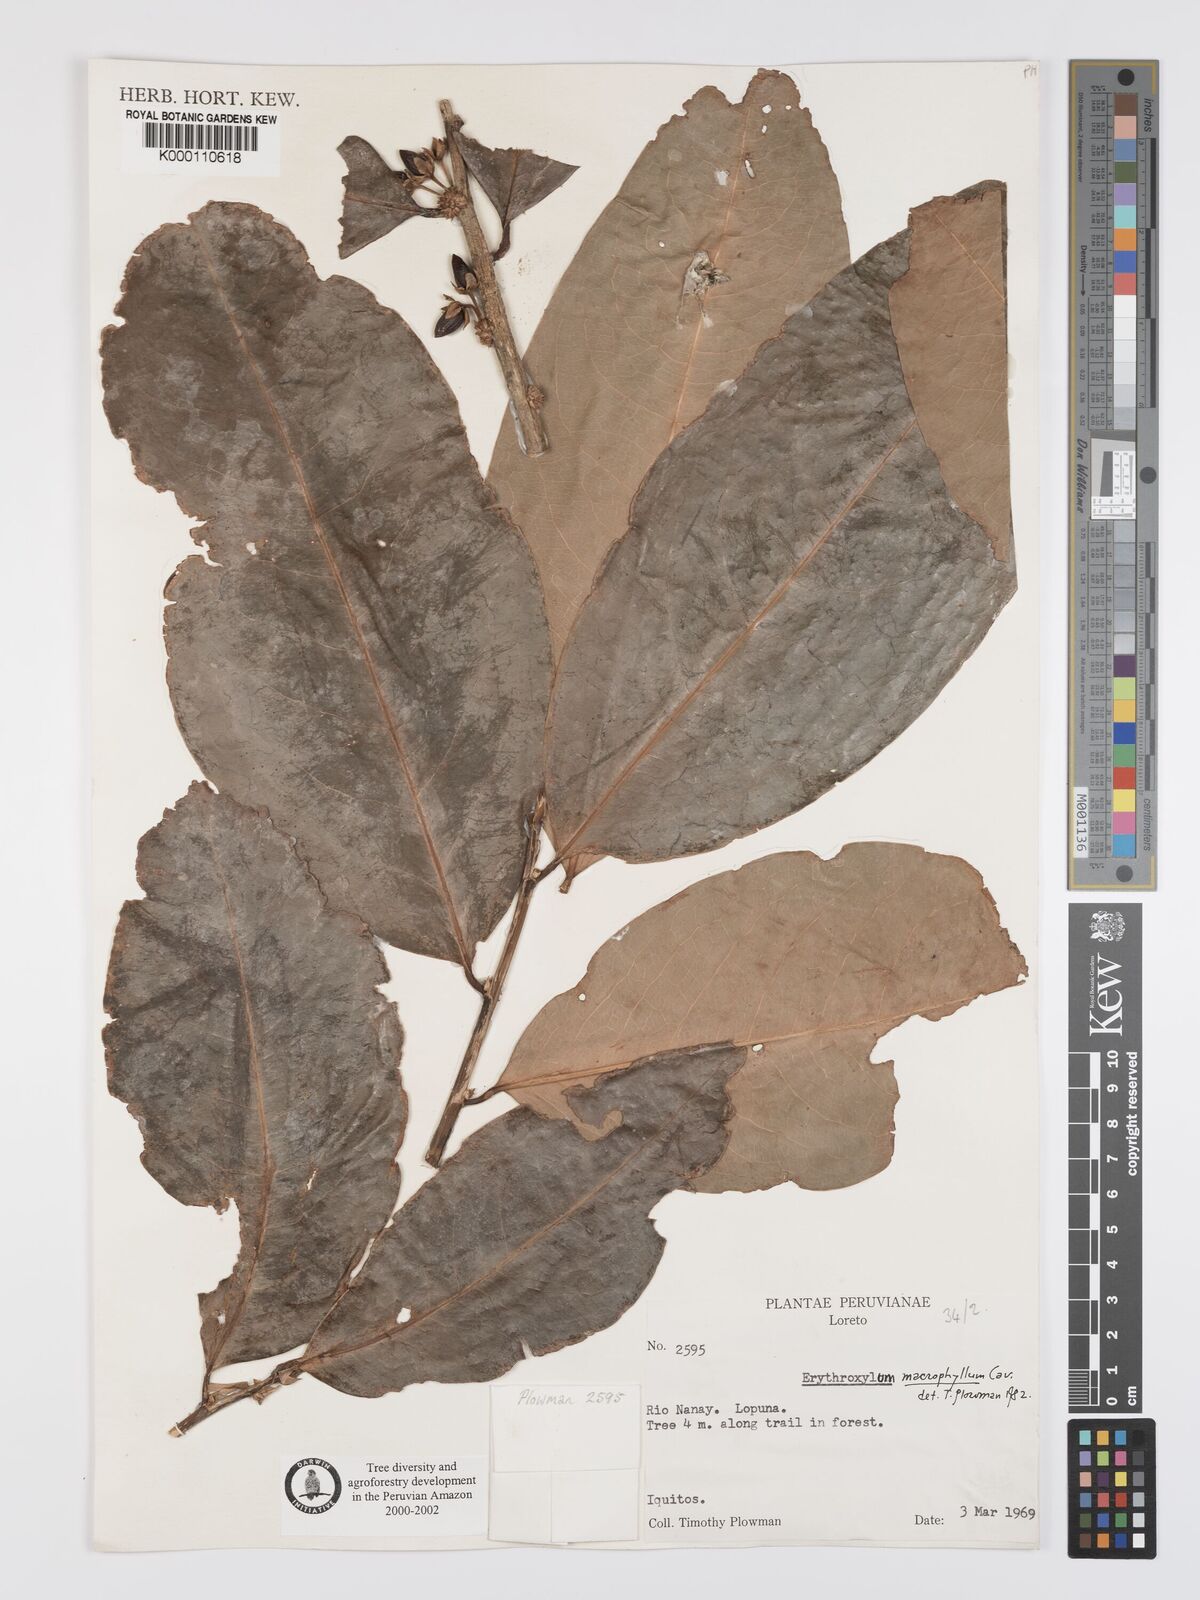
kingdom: Plantae
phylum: Tracheophyta
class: Magnoliopsida
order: Malpighiales
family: Erythroxylaceae
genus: Erythroxylum
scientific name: Erythroxylum
